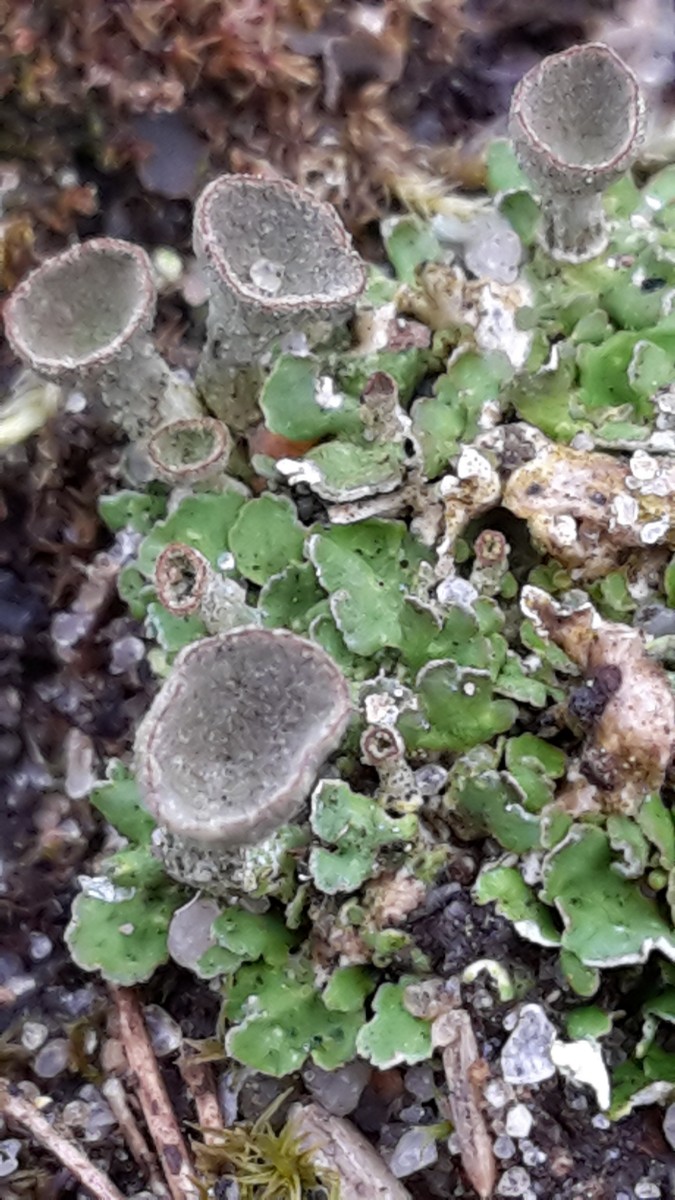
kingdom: Fungi
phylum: Ascomycota
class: Lecanoromycetes
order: Lecanorales
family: Cladoniaceae
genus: Cladonia
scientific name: Cladonia humilis
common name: lav bægerlav
